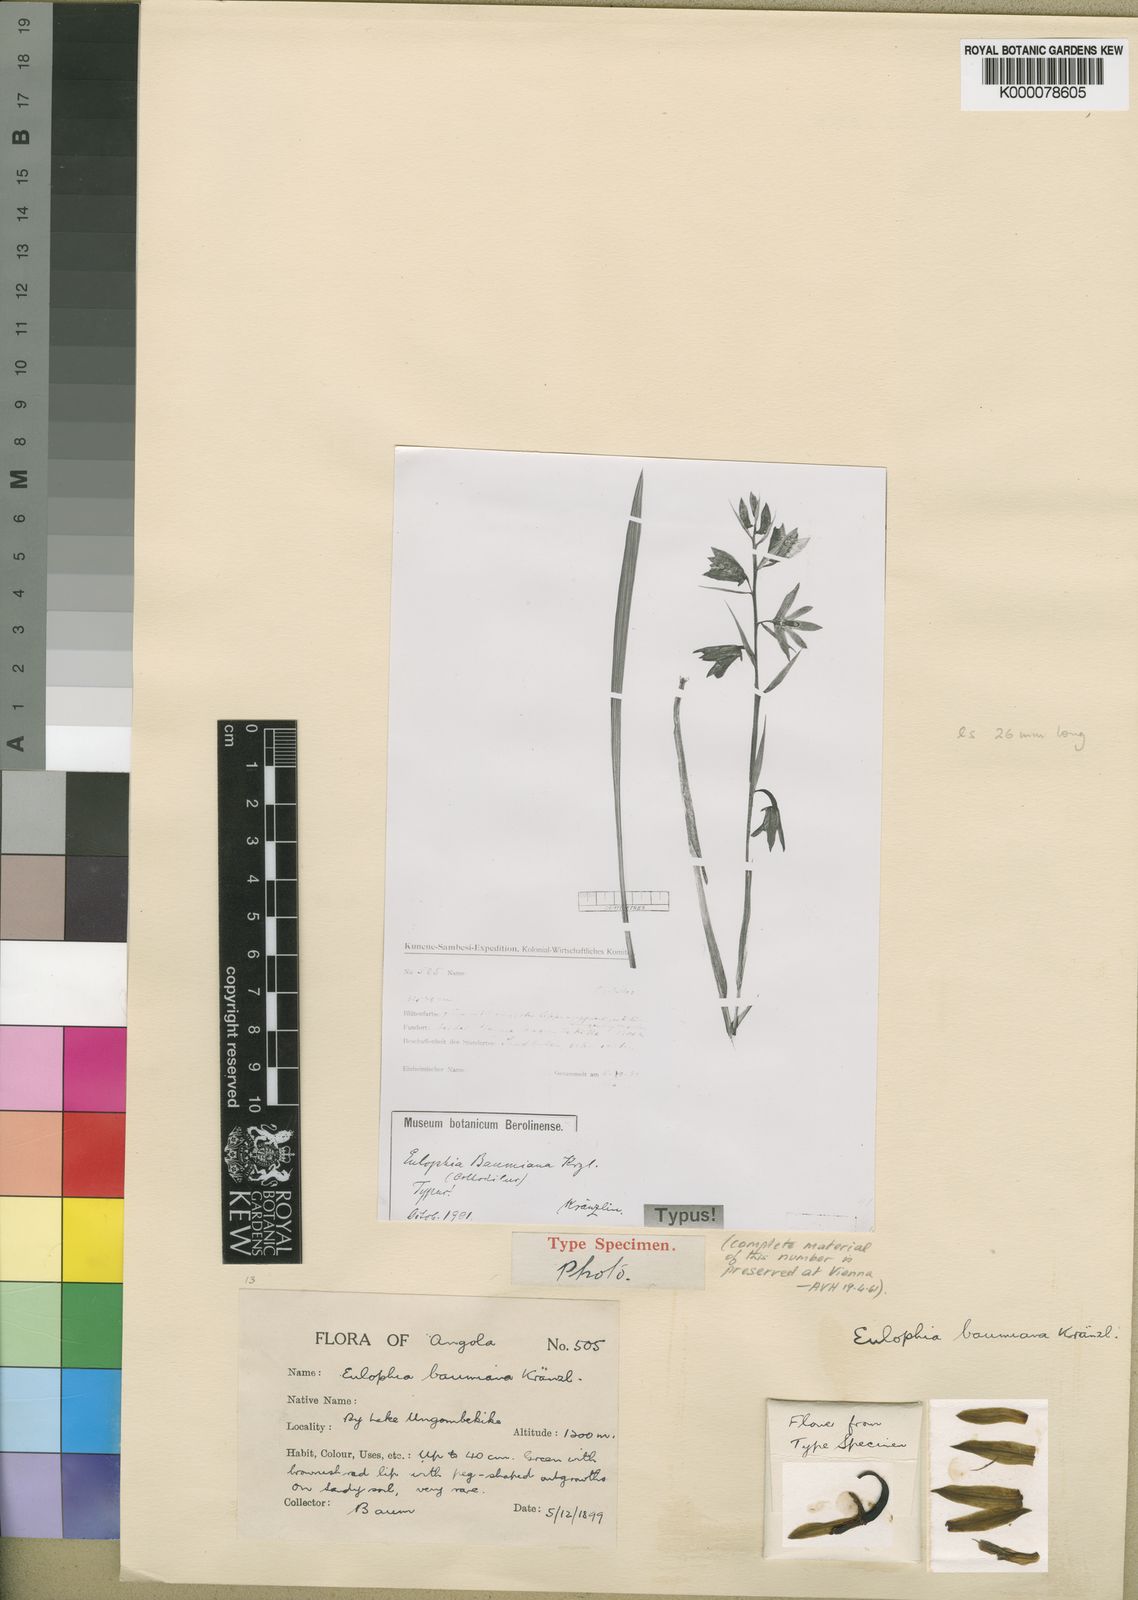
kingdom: Plantae
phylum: Tracheophyta
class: Liliopsida
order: Asparagales
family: Orchidaceae
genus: Eulophia
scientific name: Eulophia adenoglossa
